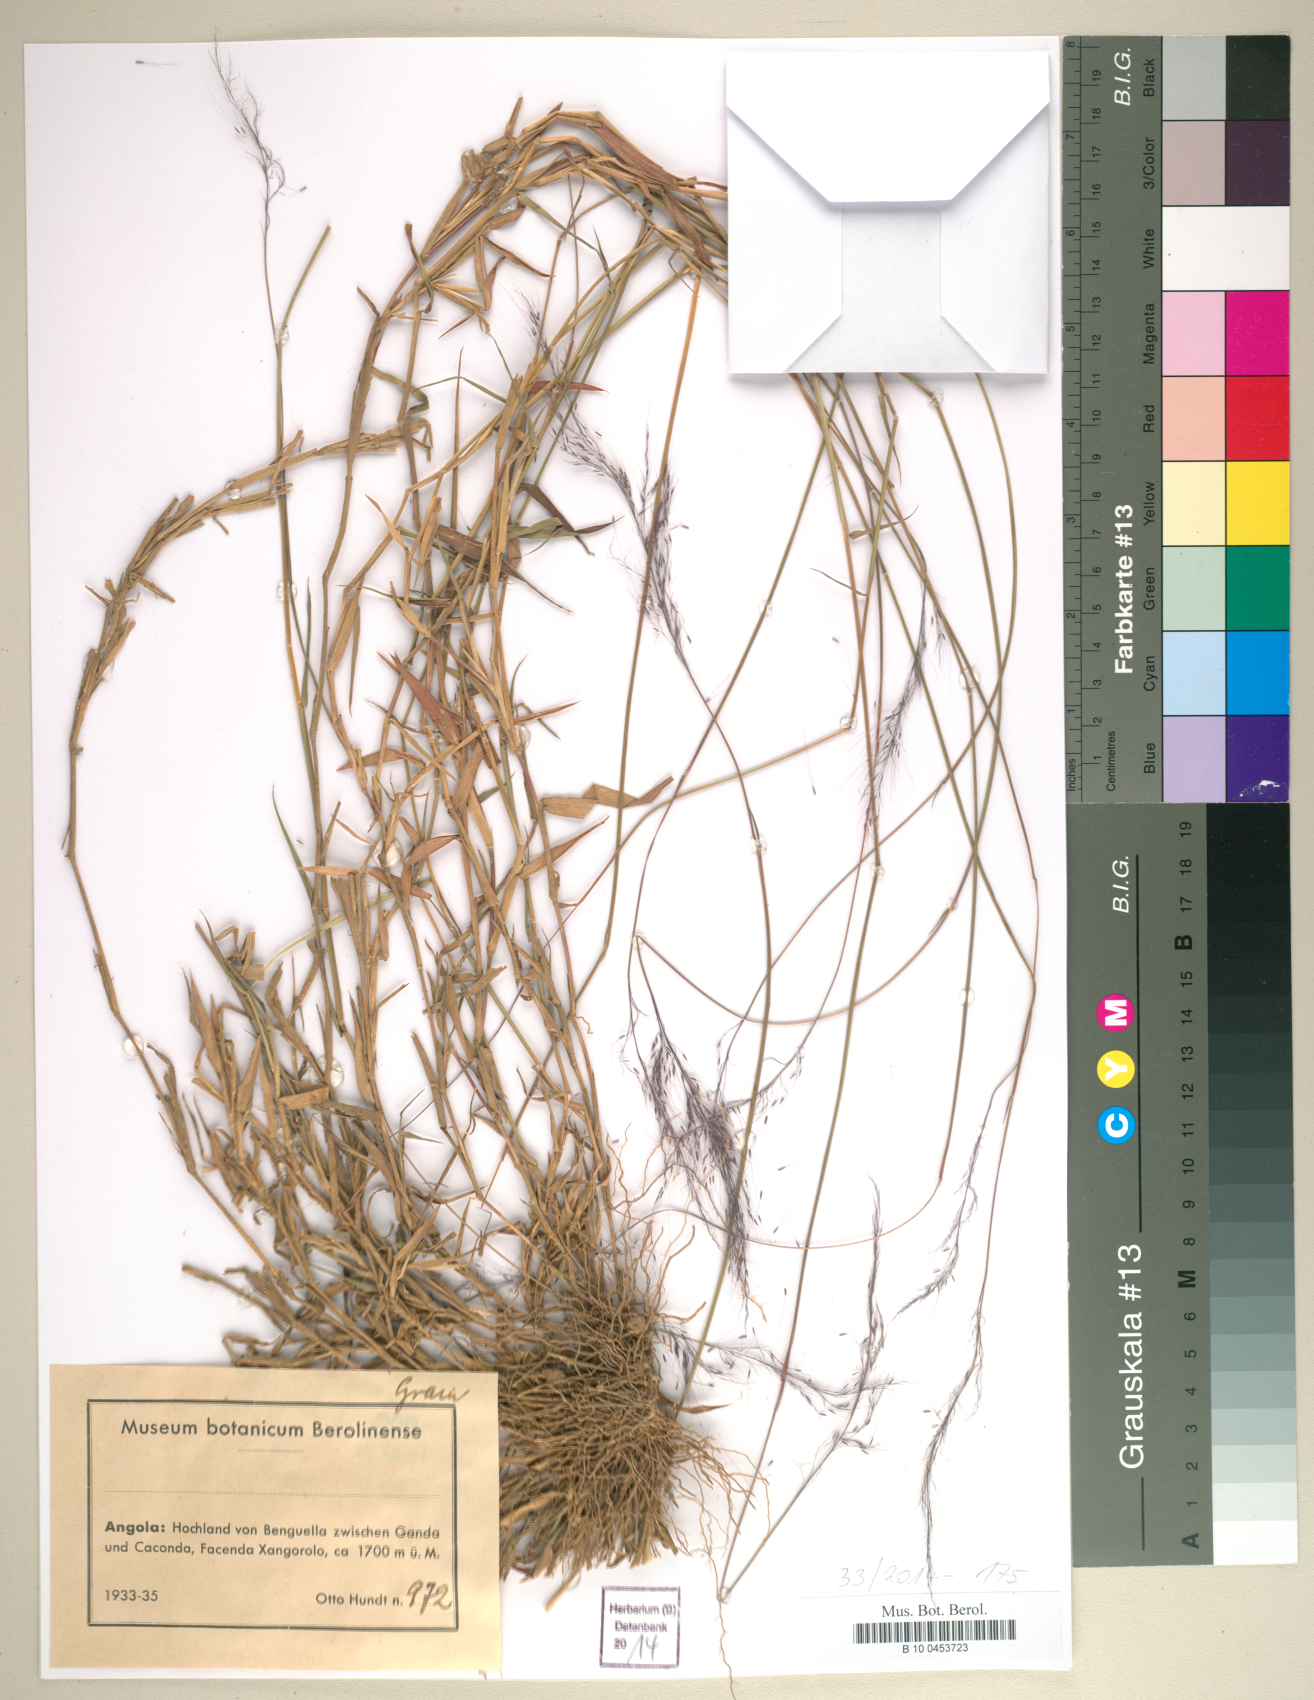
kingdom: Plantae
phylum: Tracheophyta
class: Liliopsida
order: Poales
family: Poaceae
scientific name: Poaceae
